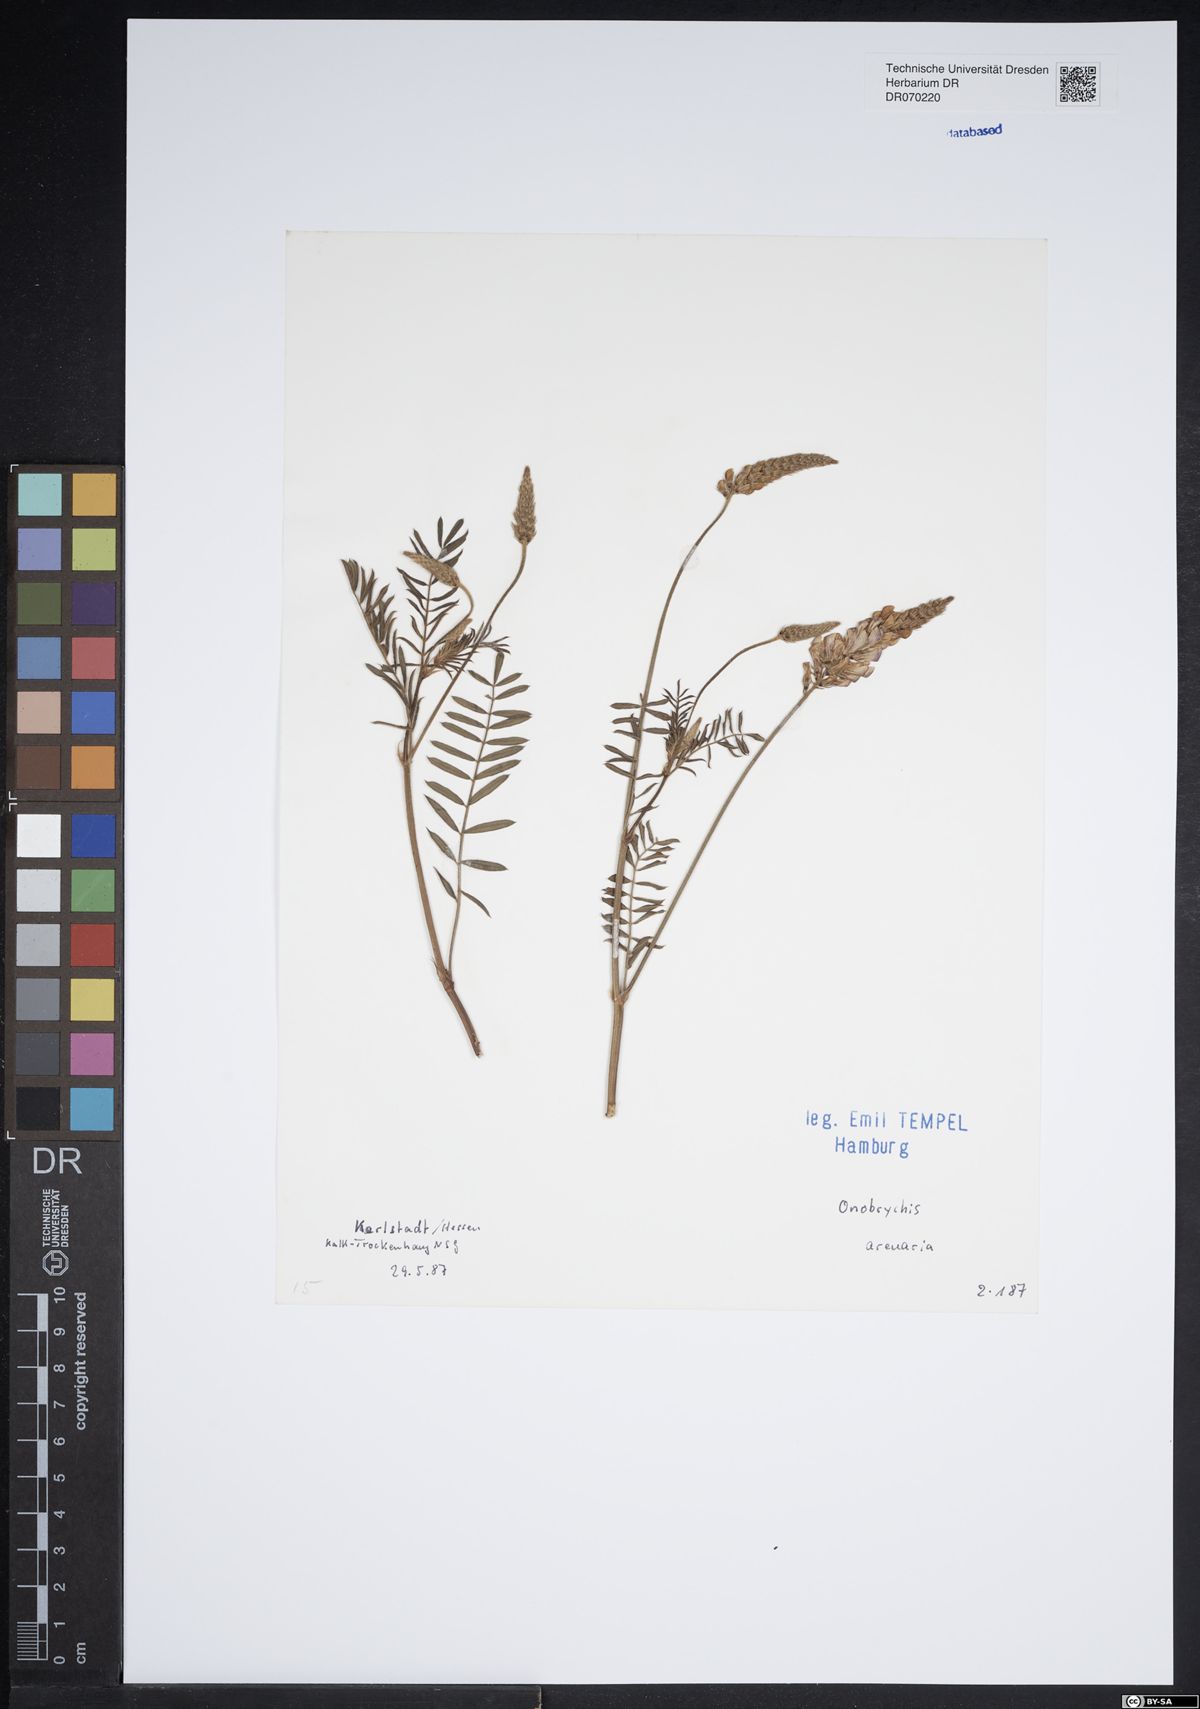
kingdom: Plantae
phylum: Tracheophyta
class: Magnoliopsida
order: Fabales
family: Fabaceae
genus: Onobrychis
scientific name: Onobrychis arenaria
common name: Sand esparcet
